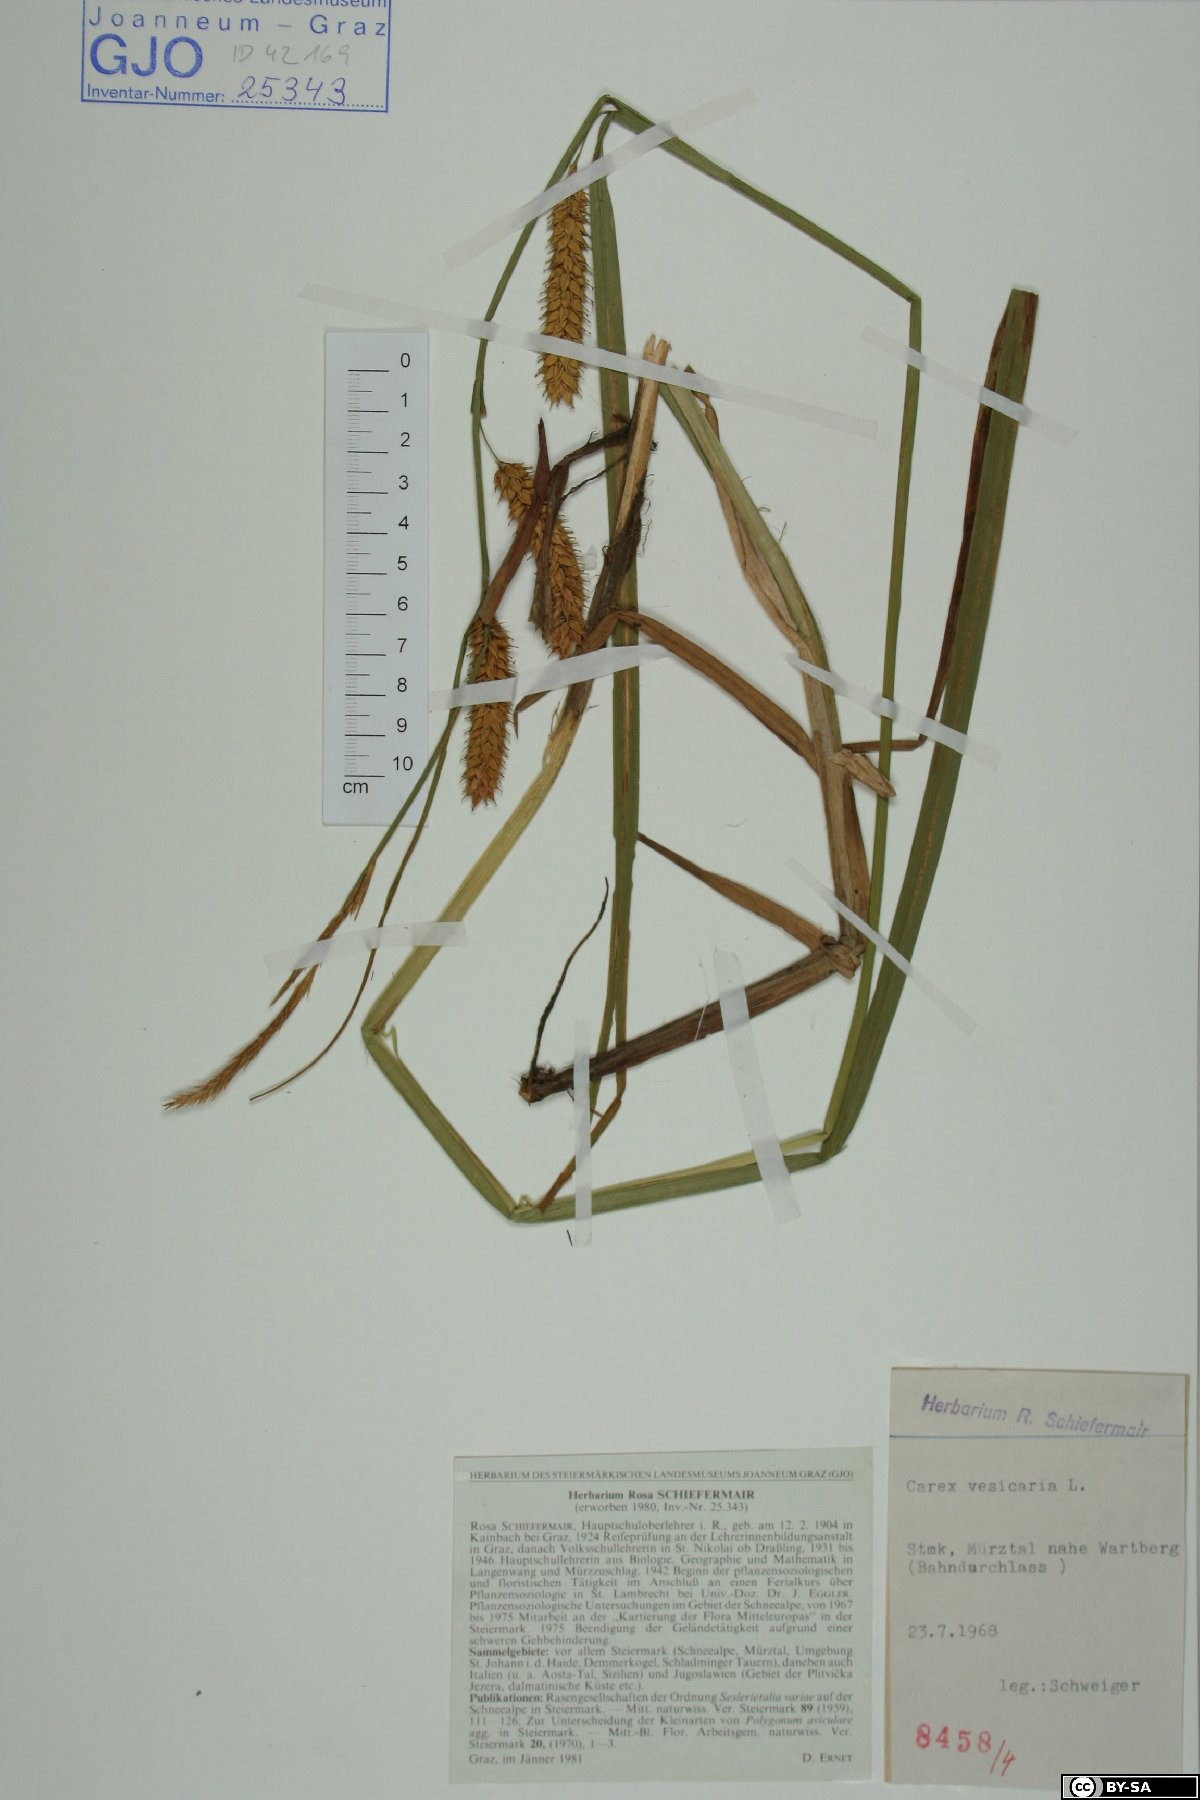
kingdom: Plantae
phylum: Tracheophyta
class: Liliopsida
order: Poales
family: Cyperaceae
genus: Carex
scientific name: Carex vesicaria
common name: Bladder-sedge
